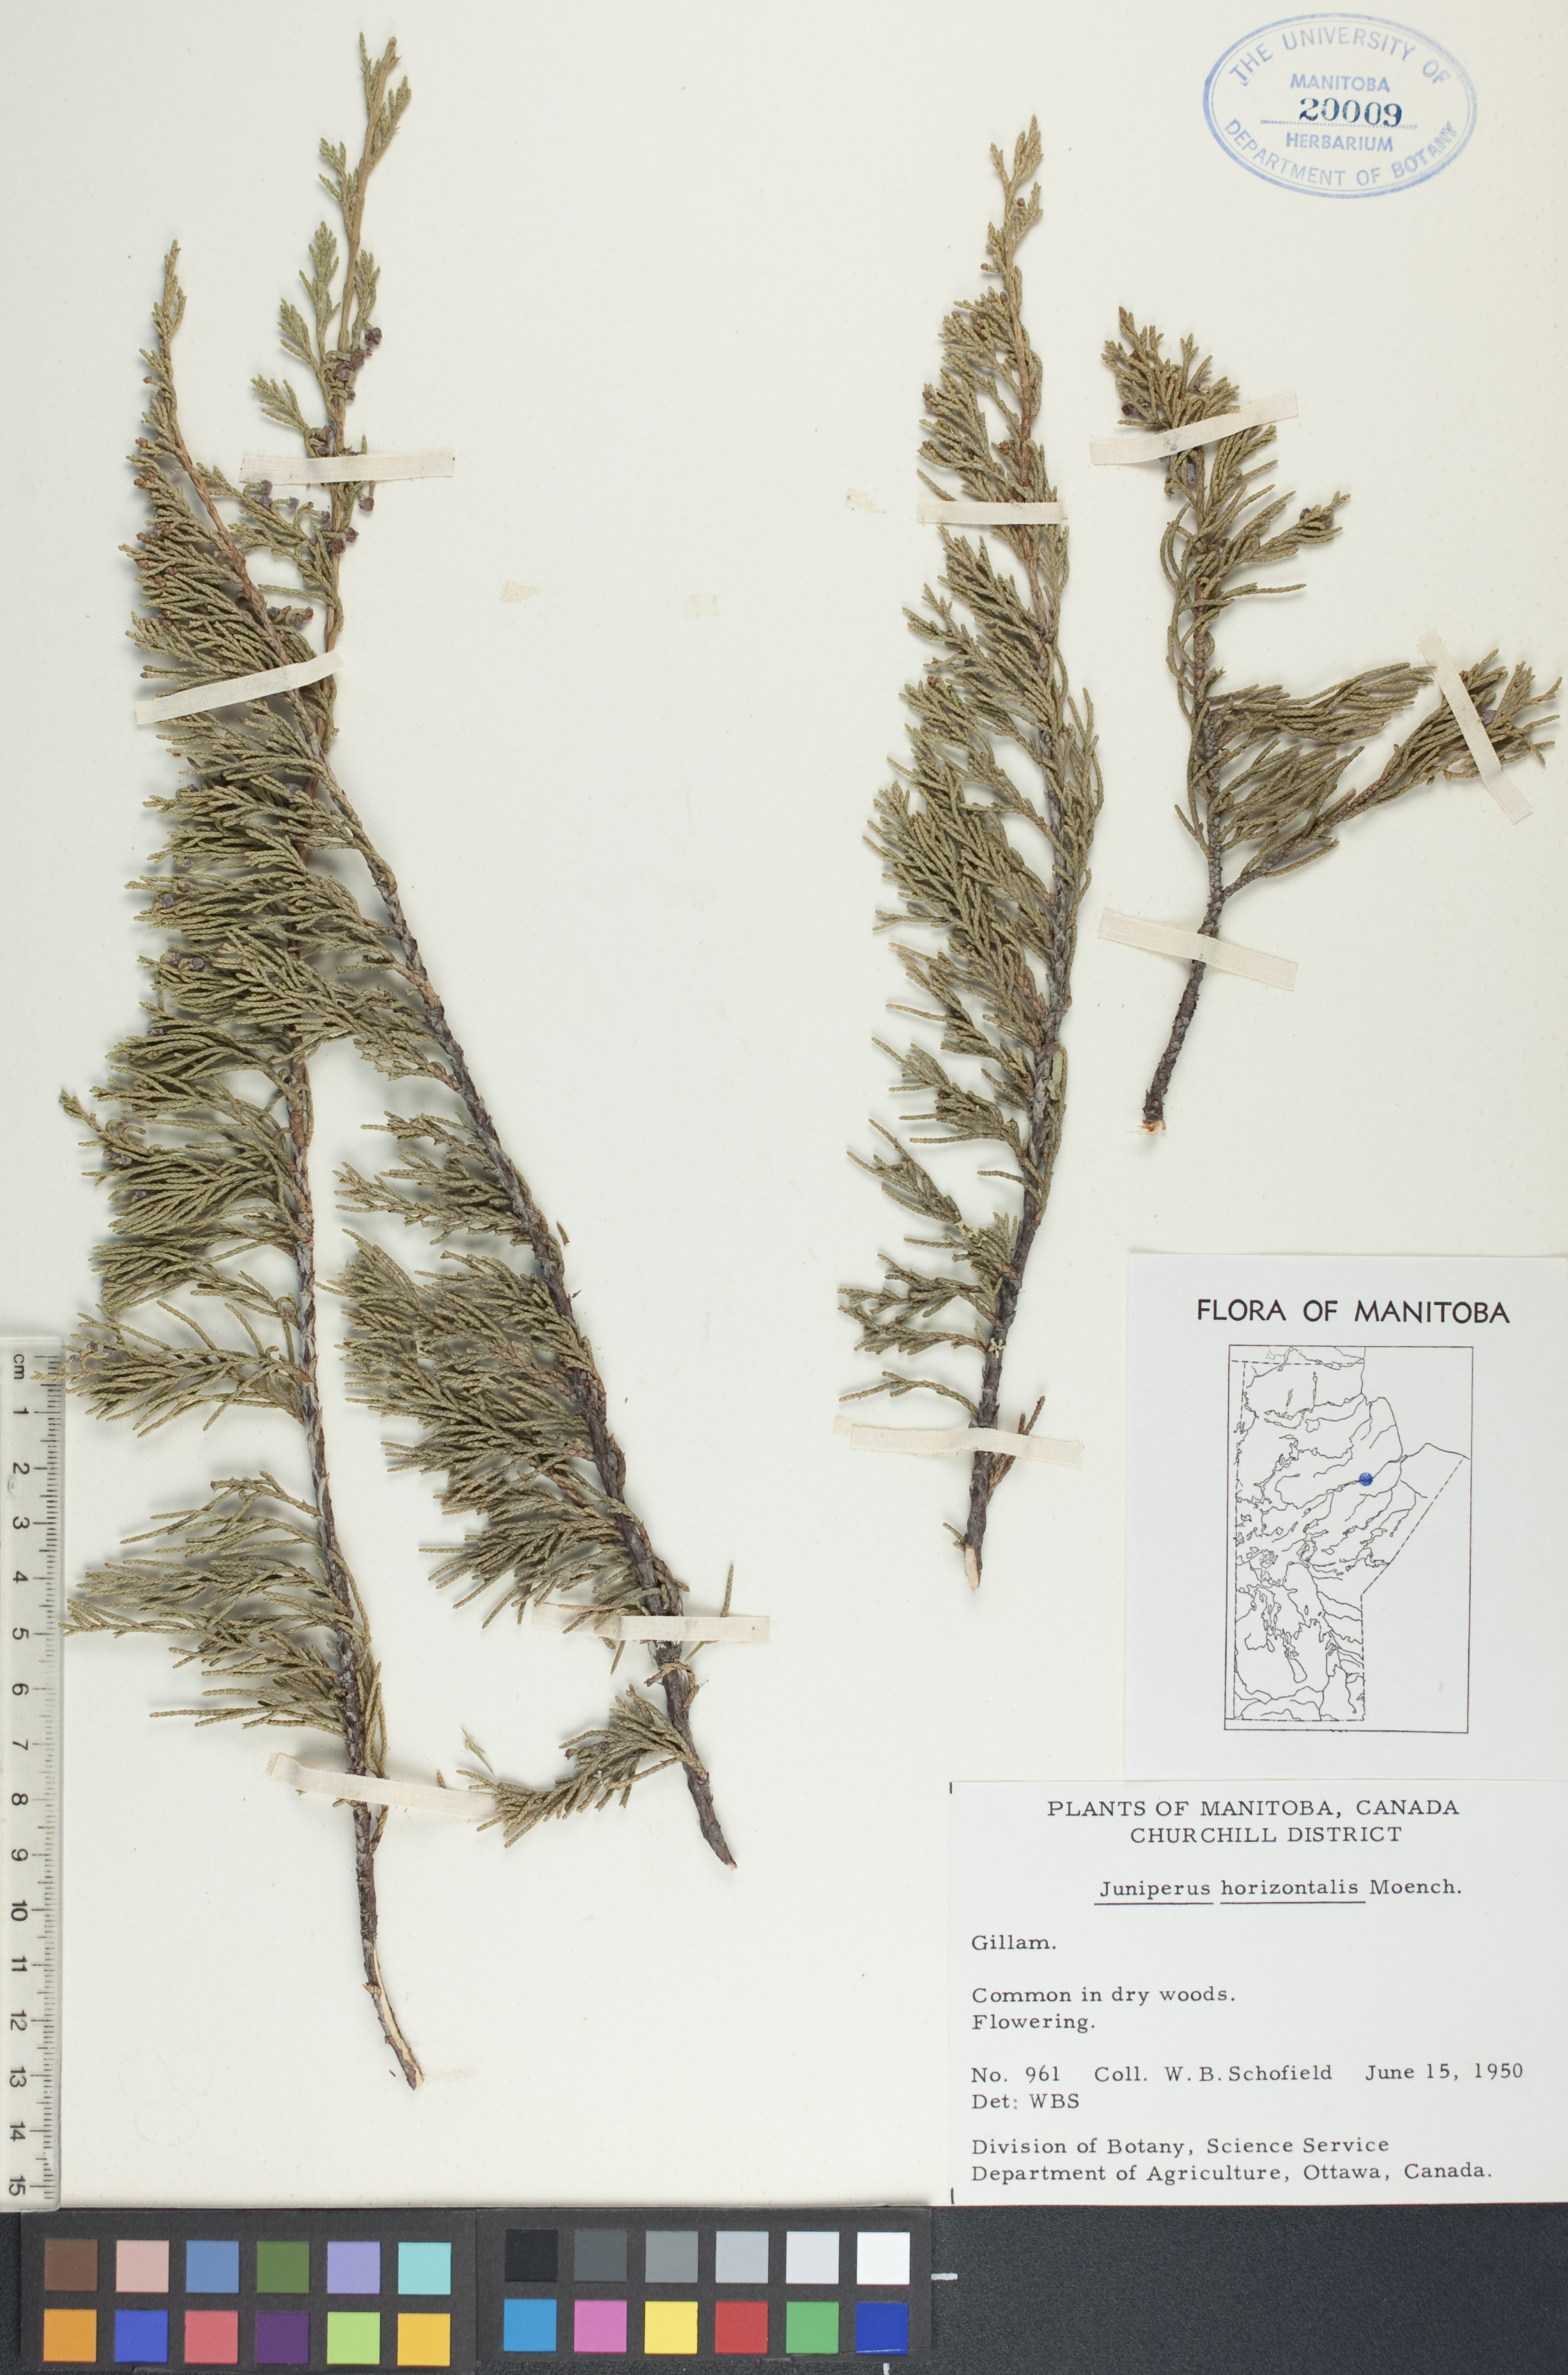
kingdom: Plantae
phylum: Tracheophyta
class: Pinopsida
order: Pinales
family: Cupressaceae
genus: Juniperus
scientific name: Juniperus horizontalis
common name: Creeping juniper
